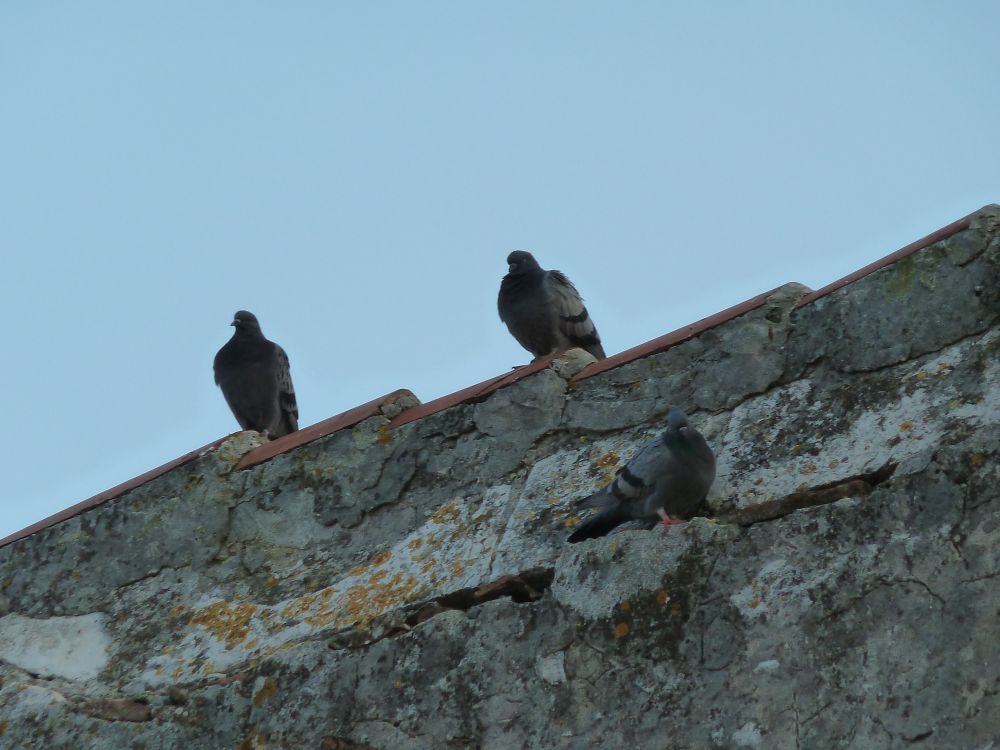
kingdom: Animalia
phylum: Chordata
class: Aves
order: Columbiformes
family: Columbidae
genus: Columba
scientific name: Columba livia
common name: Rock pigeon
